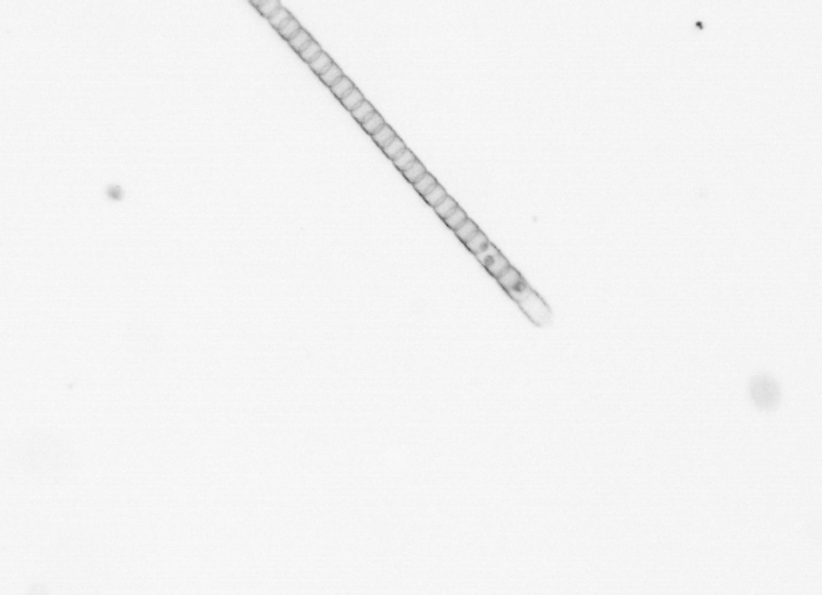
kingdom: Chromista
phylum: Ochrophyta
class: Bacillariophyceae
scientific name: Bacillariophyceae
